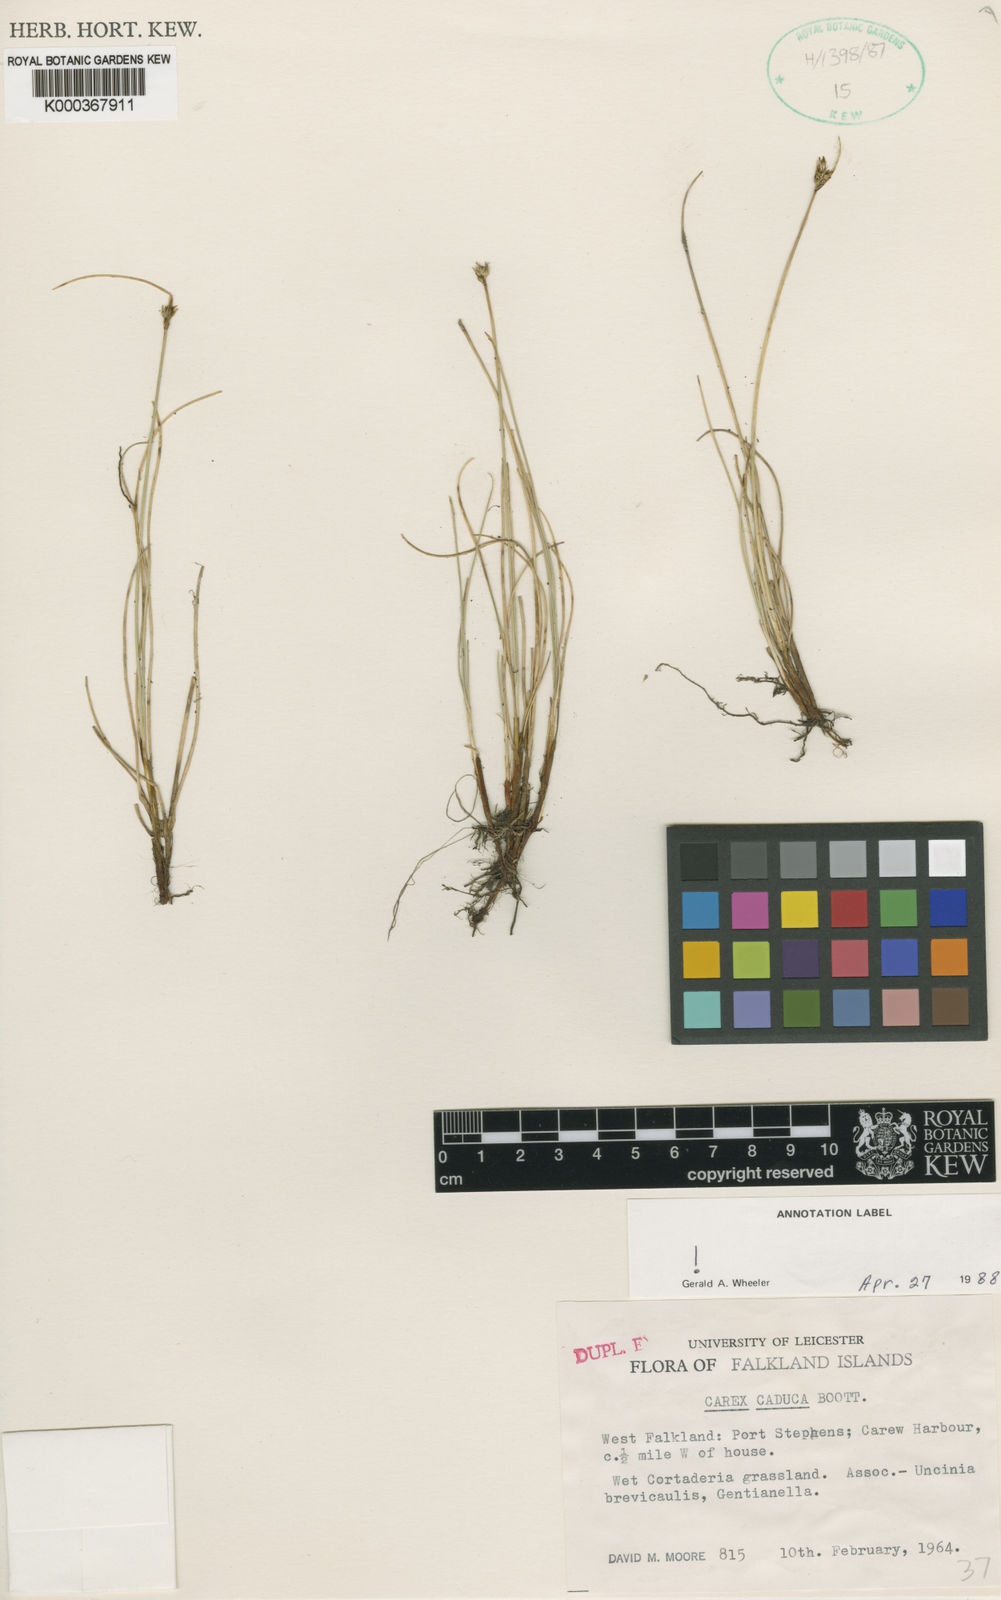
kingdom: Plantae
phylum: Tracheophyta
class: Liliopsida
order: Poales
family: Cyperaceae
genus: Carex
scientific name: Carex caduca
